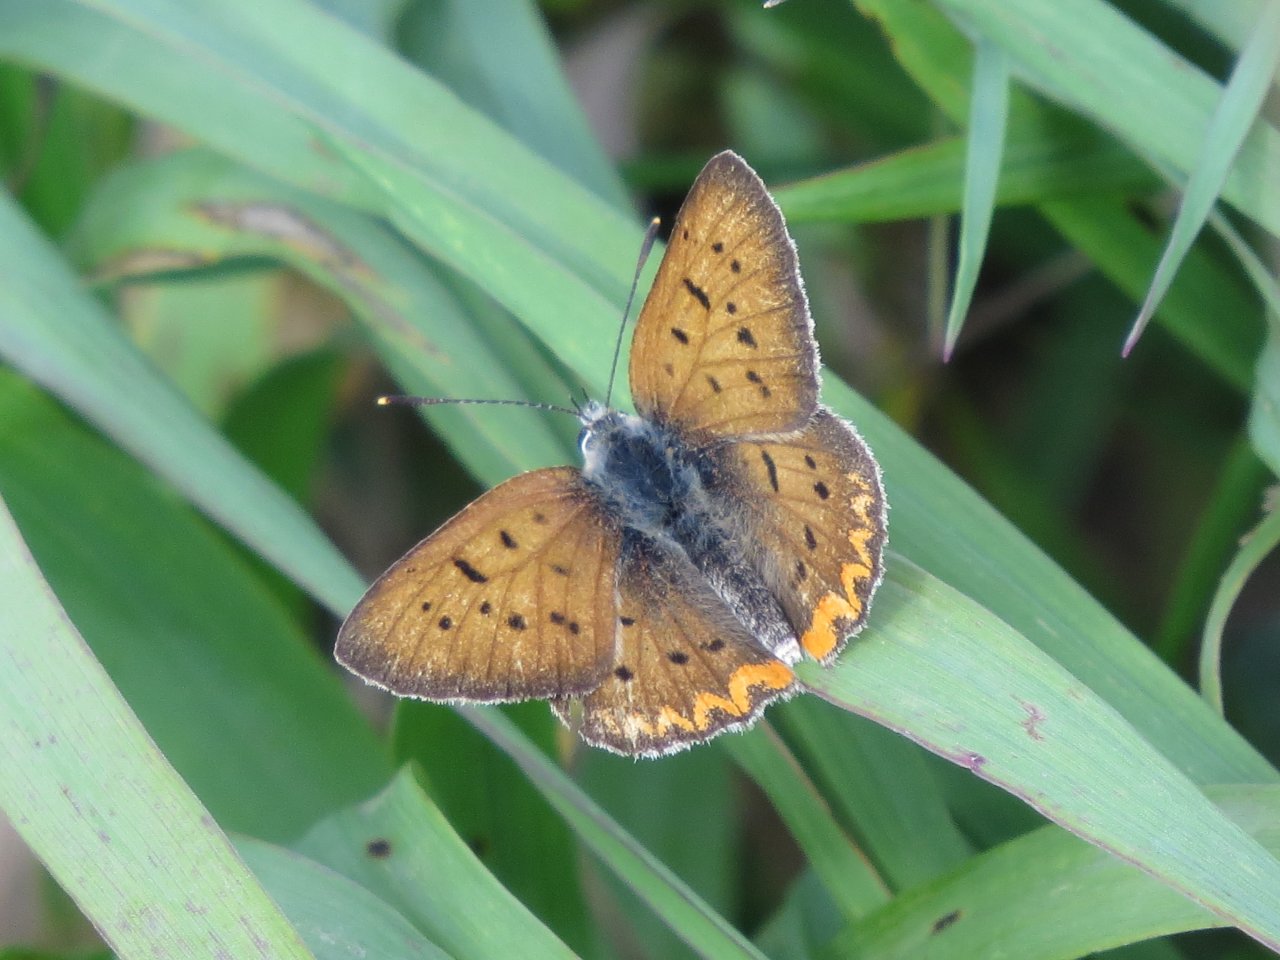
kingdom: Animalia
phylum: Arthropoda
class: Insecta
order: Lepidoptera
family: Lycaenidae
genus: Epidemia
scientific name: Epidemia dorcas
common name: Dorcas Copper
